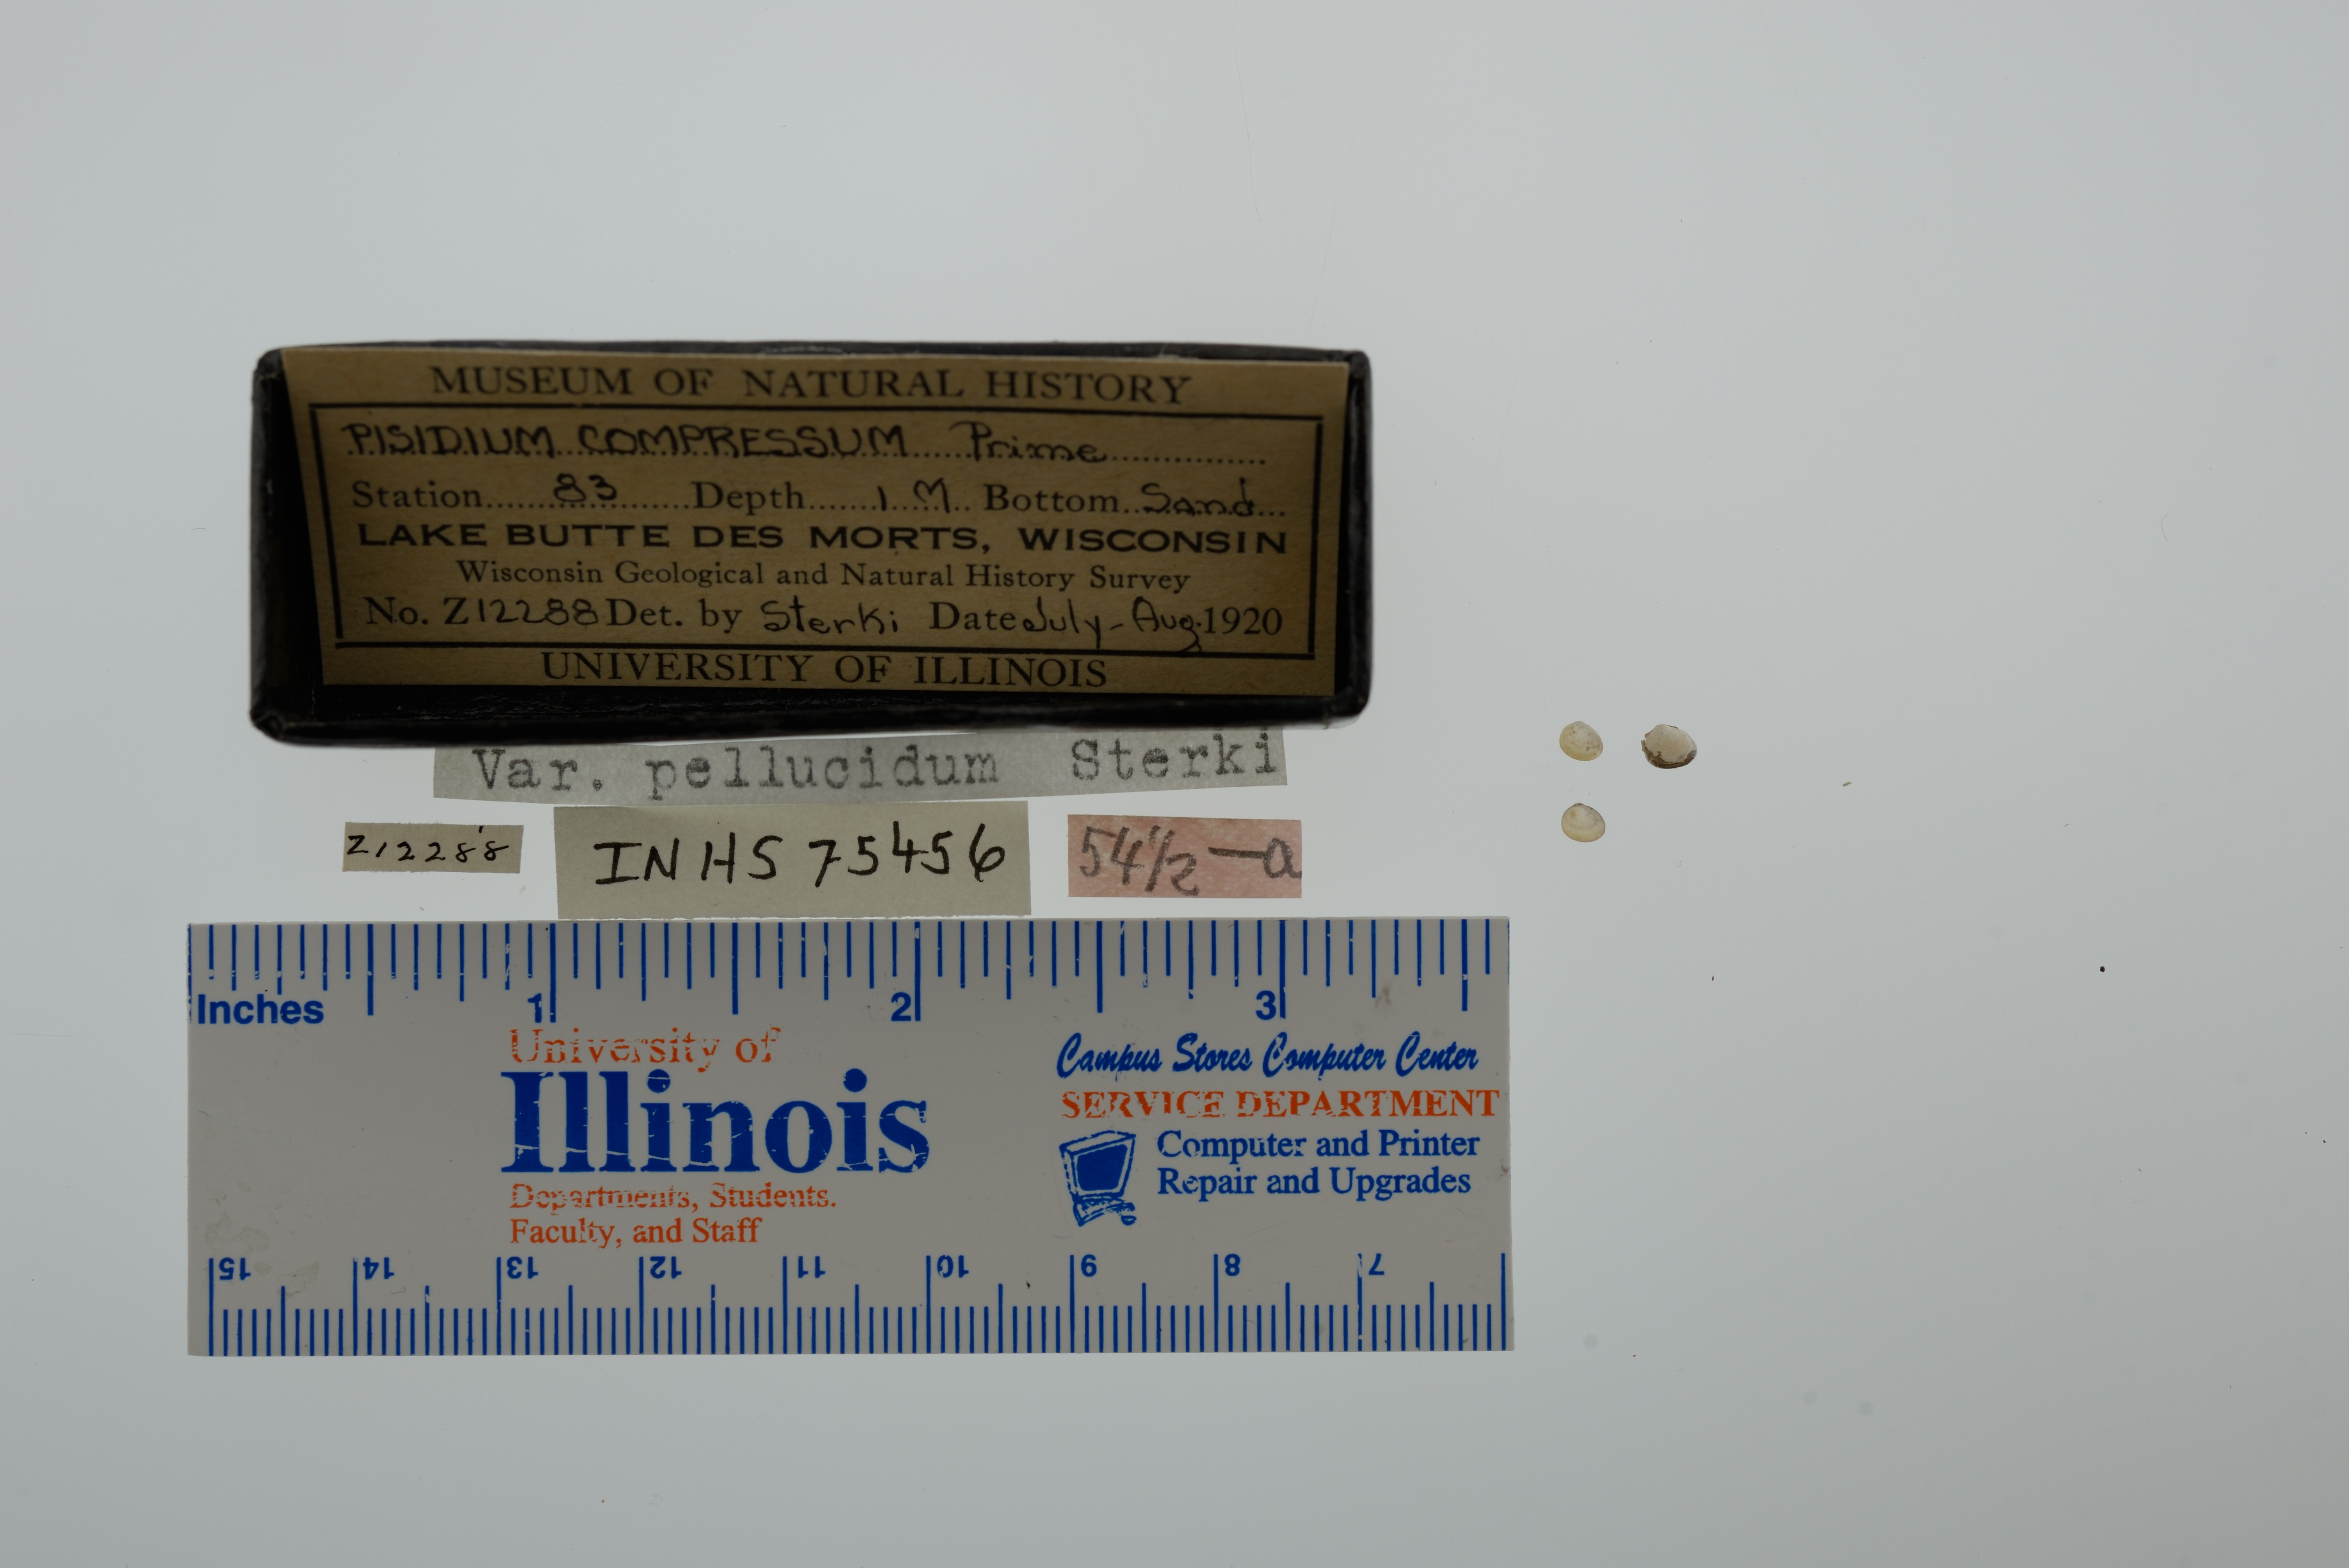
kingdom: Animalia
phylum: Mollusca
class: Bivalvia
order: Sphaeriida
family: Sphaeriidae
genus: Euglesa
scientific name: Euglesa compressa
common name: Ridgedbeak peaclam
